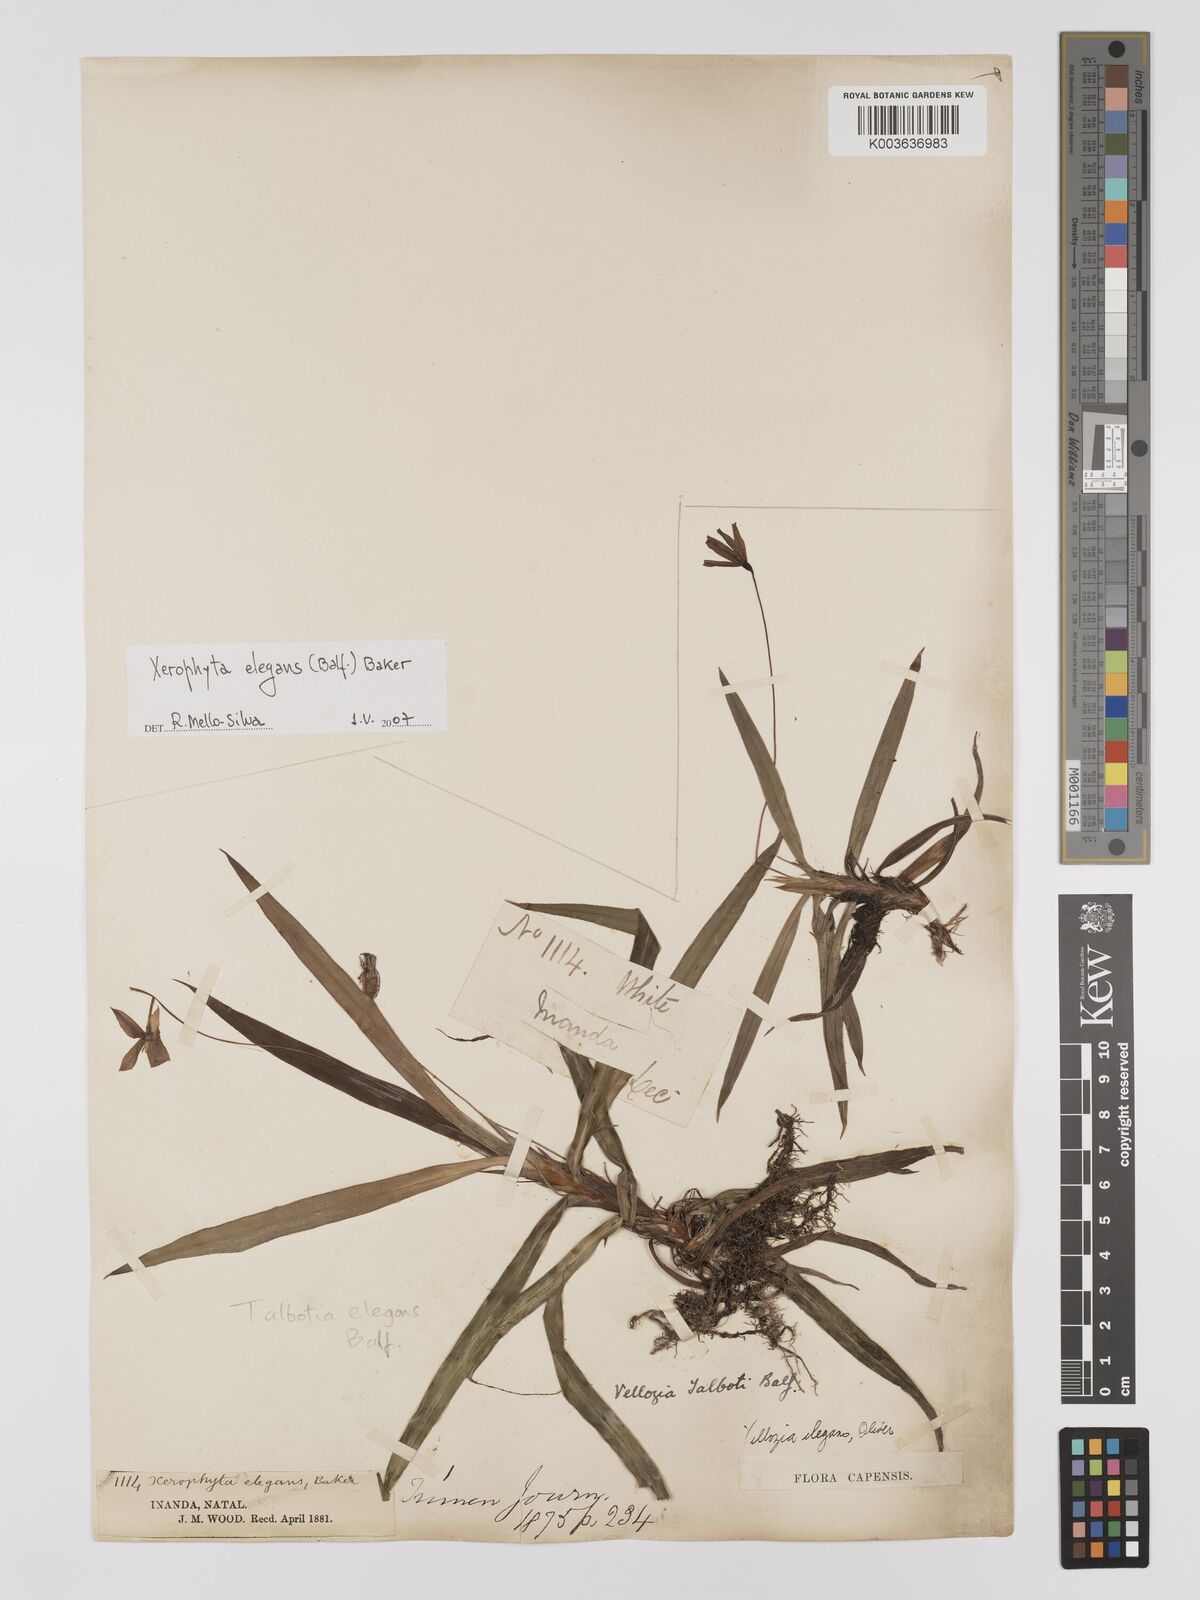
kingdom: Plantae
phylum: Tracheophyta
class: Liliopsida
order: Pandanales
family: Velloziaceae
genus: Xerophyta
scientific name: Xerophyta elegans
